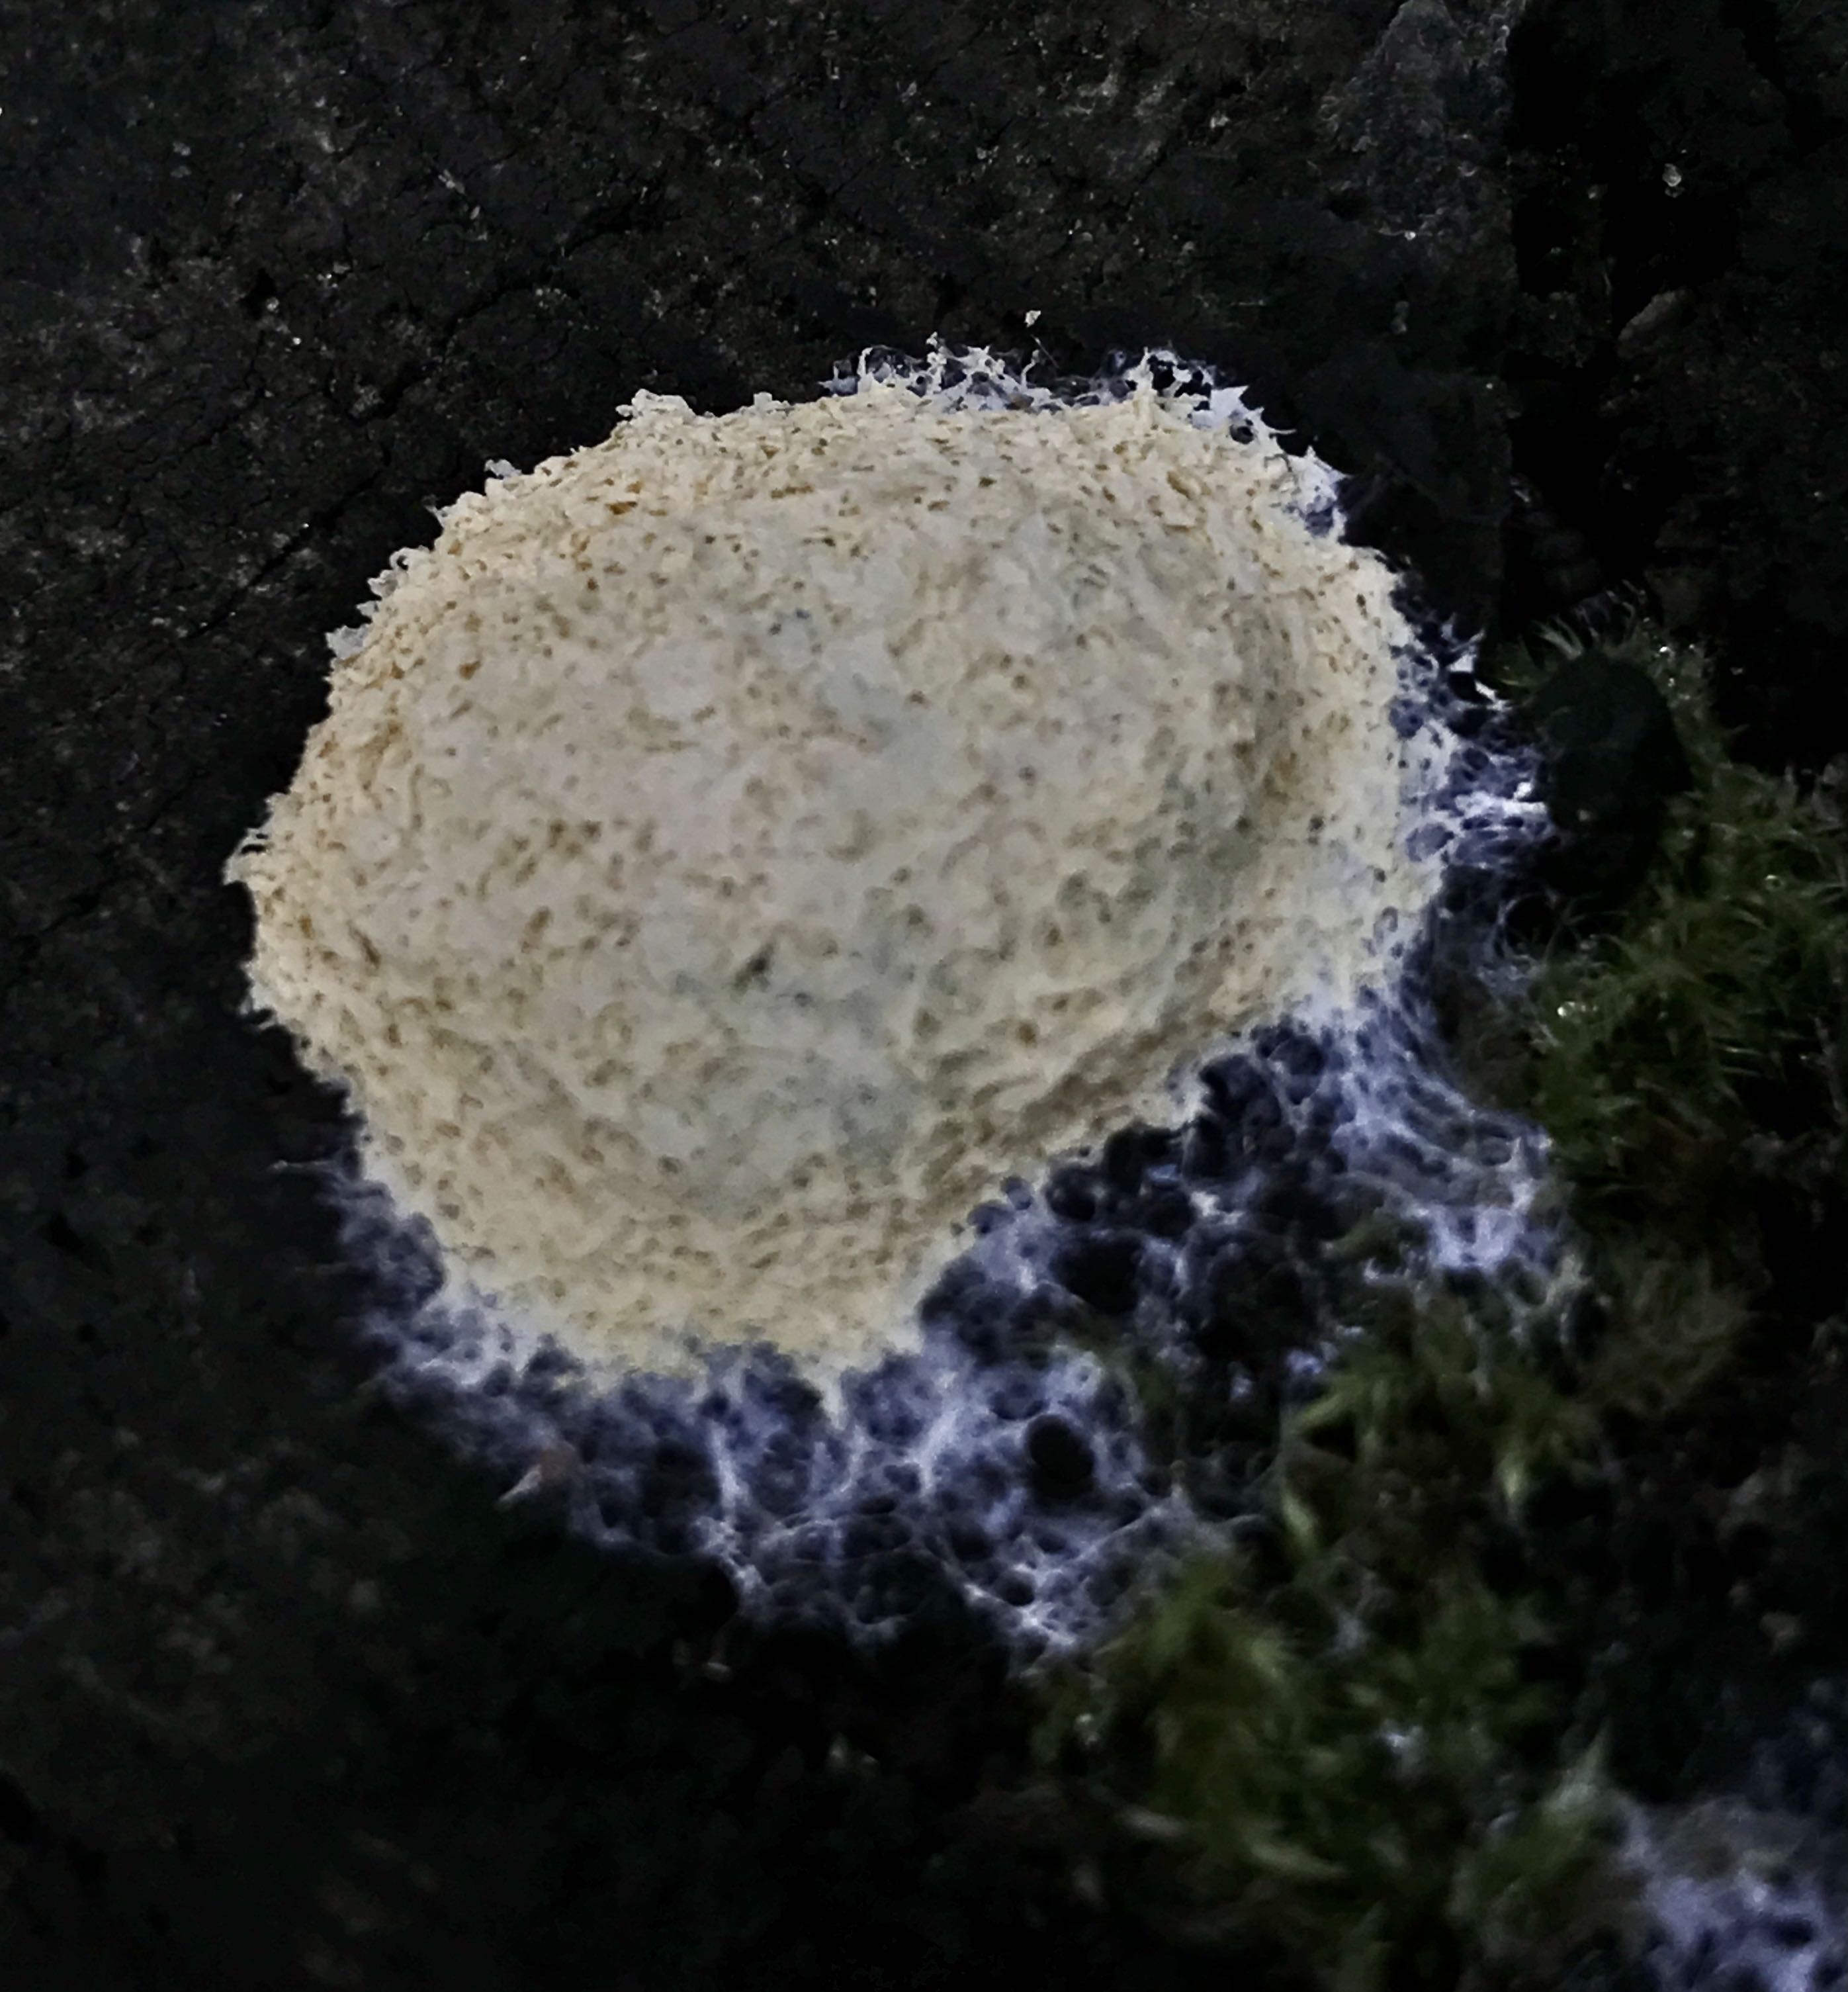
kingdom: Protozoa
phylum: Mycetozoa
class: Myxomycetes
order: Physarales
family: Physaraceae
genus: Fuligo
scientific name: Fuligo septica
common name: gul troldsmør
